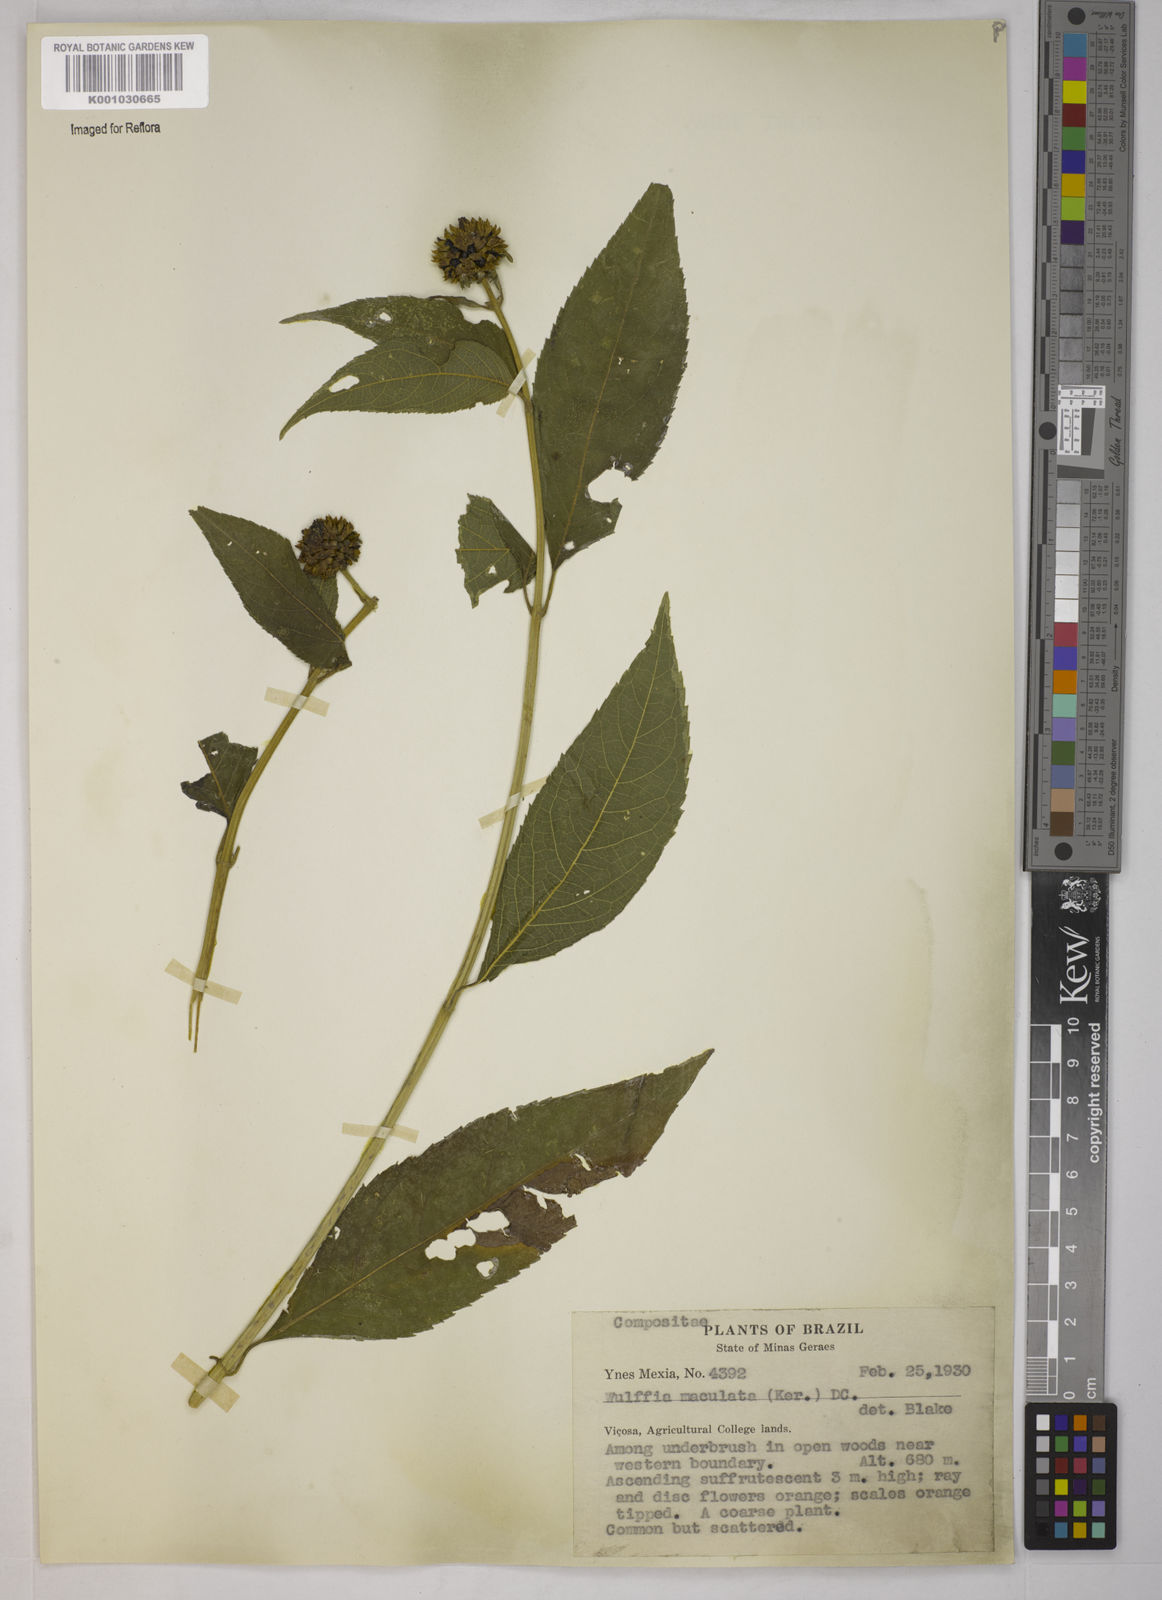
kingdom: Plantae
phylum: Tracheophyta
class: Magnoliopsida
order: Asterales
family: Asteraceae
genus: Tilesia
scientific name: Tilesia baccata
